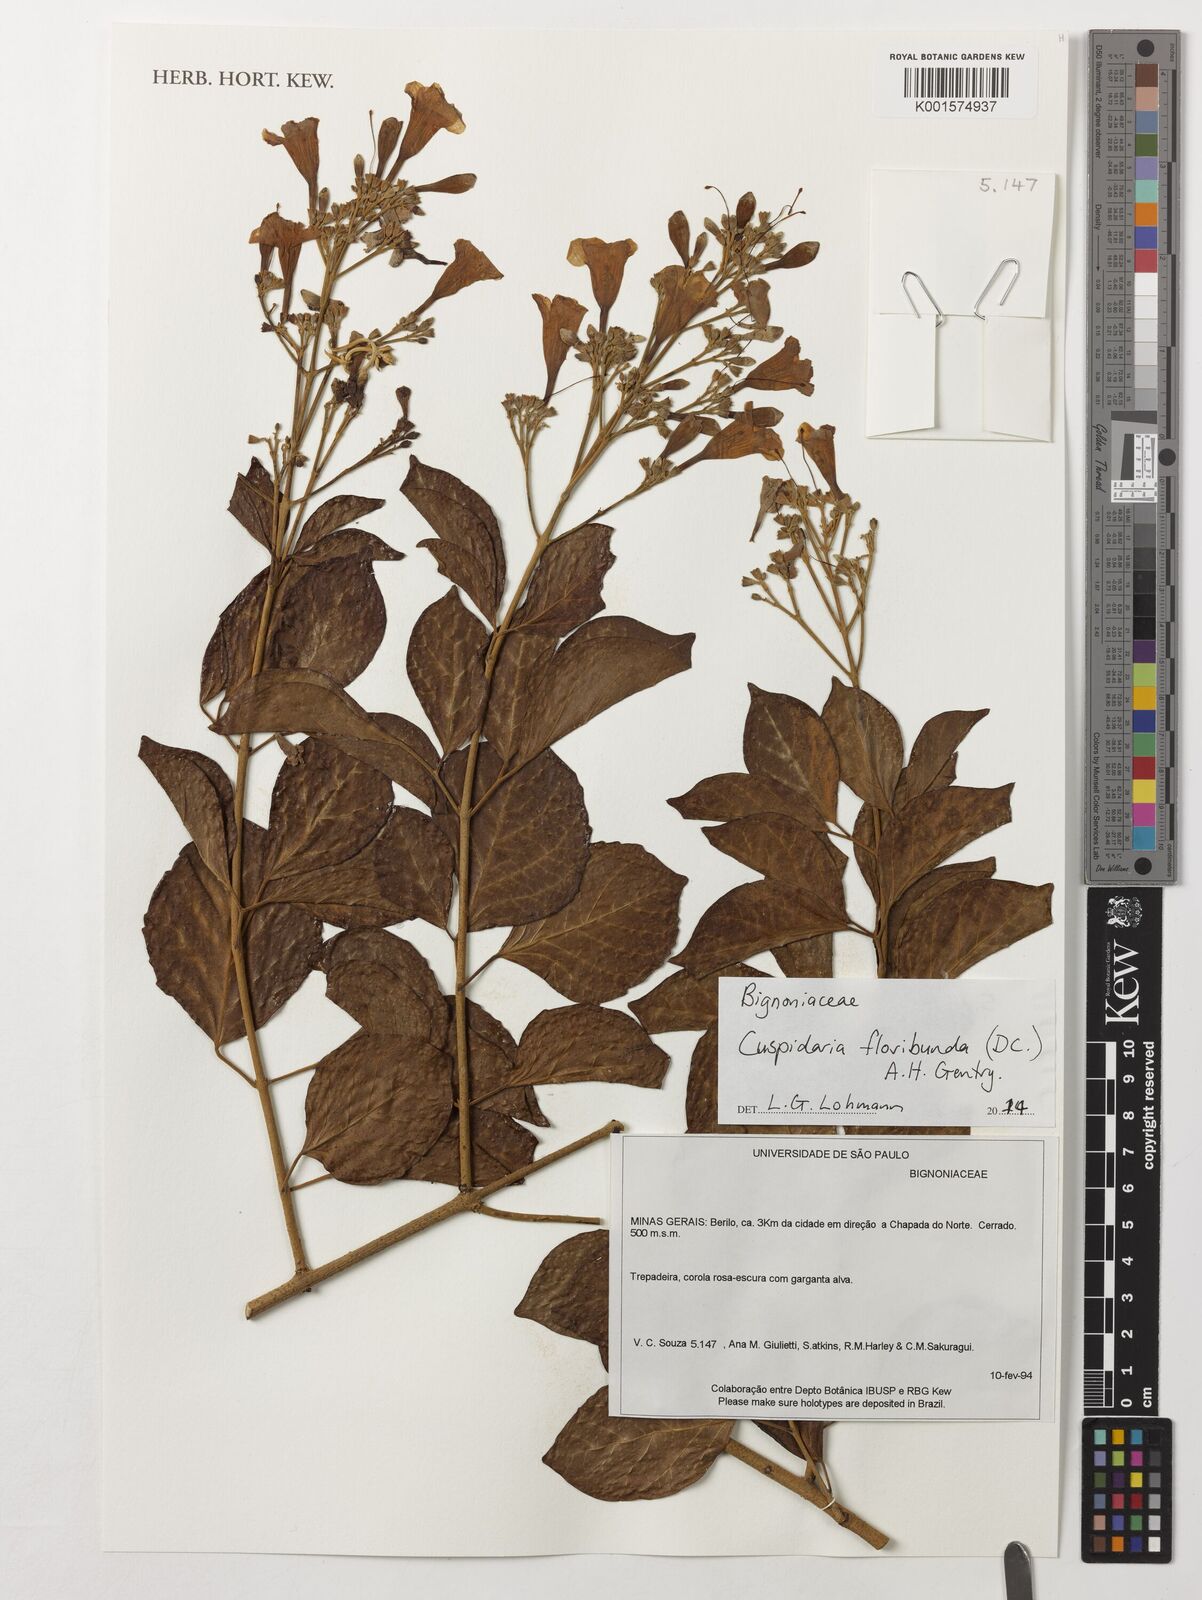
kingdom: Plantae
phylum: Tracheophyta
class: Magnoliopsida
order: Lamiales
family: Bignoniaceae
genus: Cuspidaria
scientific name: Cuspidaria floribunda
